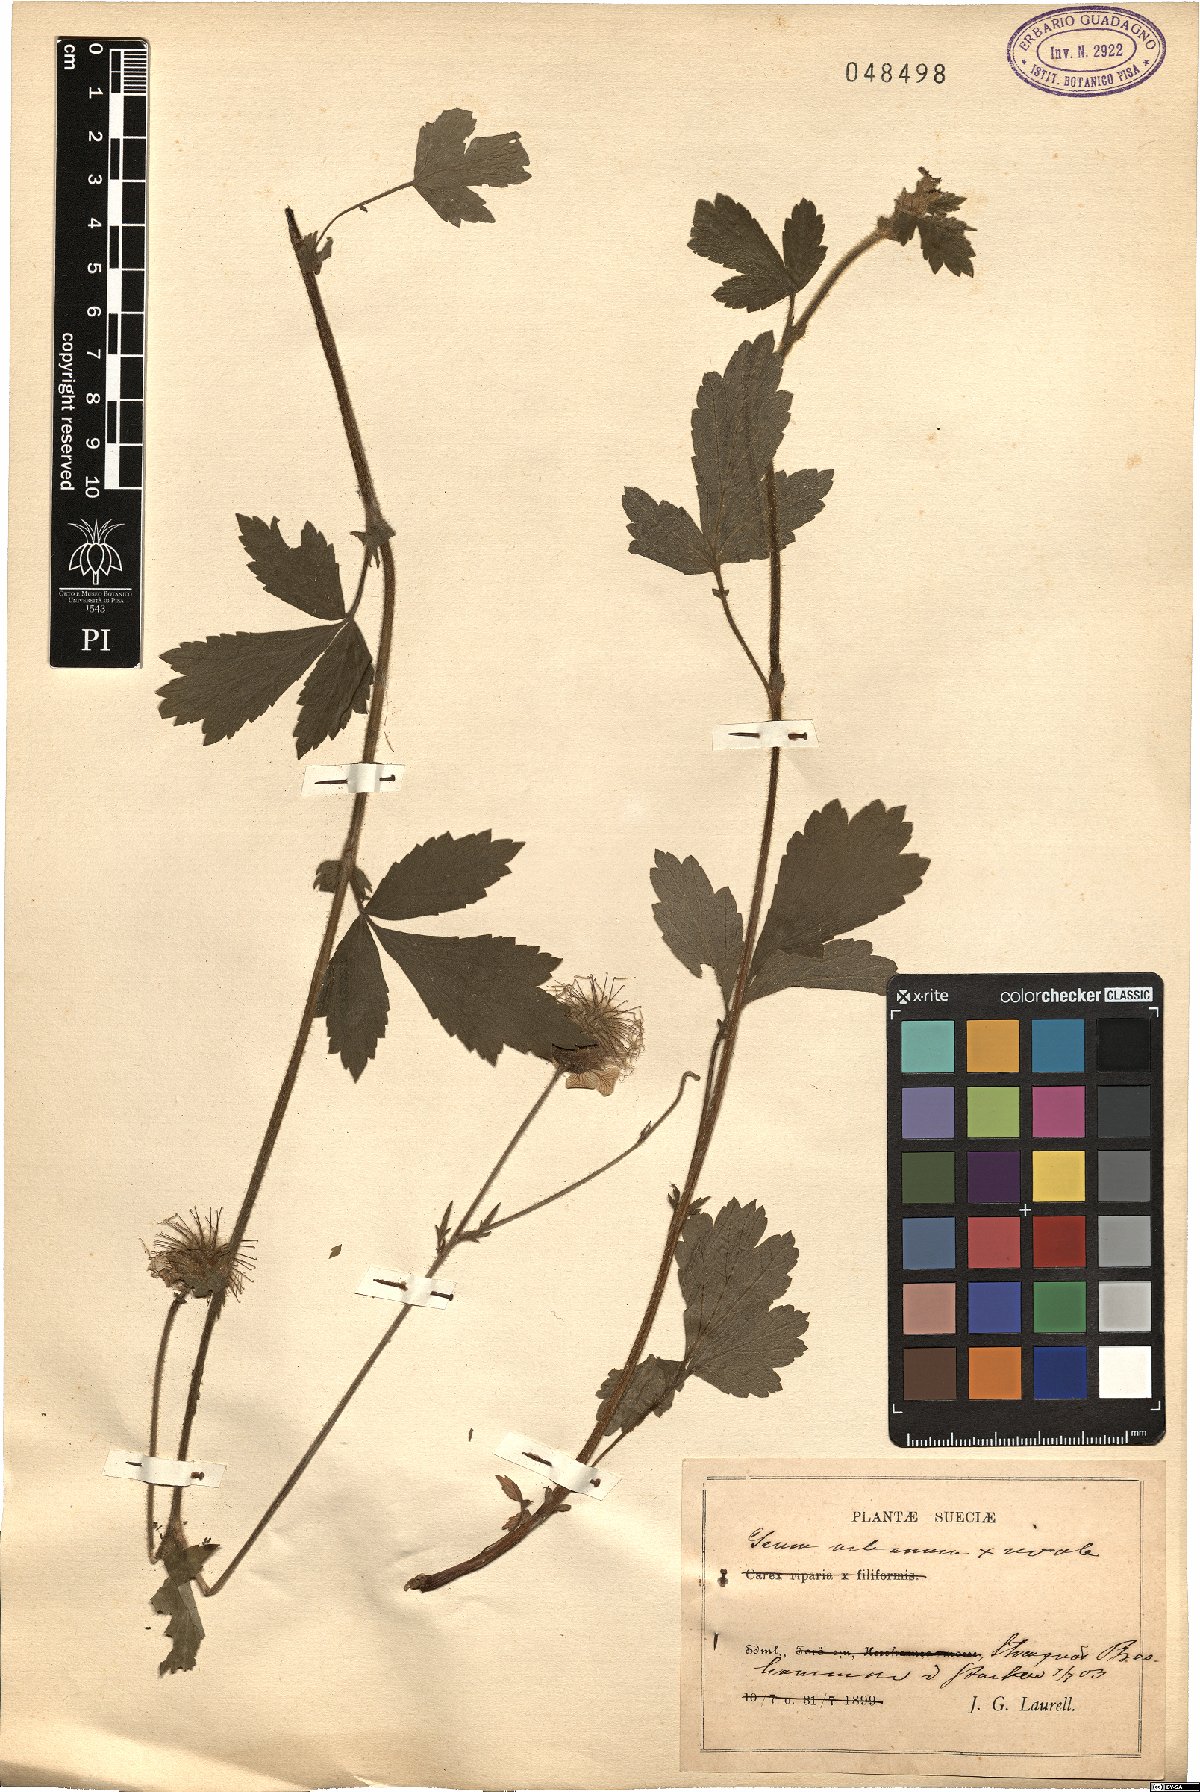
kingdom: Plantae
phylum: Tracheophyta
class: Magnoliopsida
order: Rosales
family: Rosaceae
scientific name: Rosaceae
